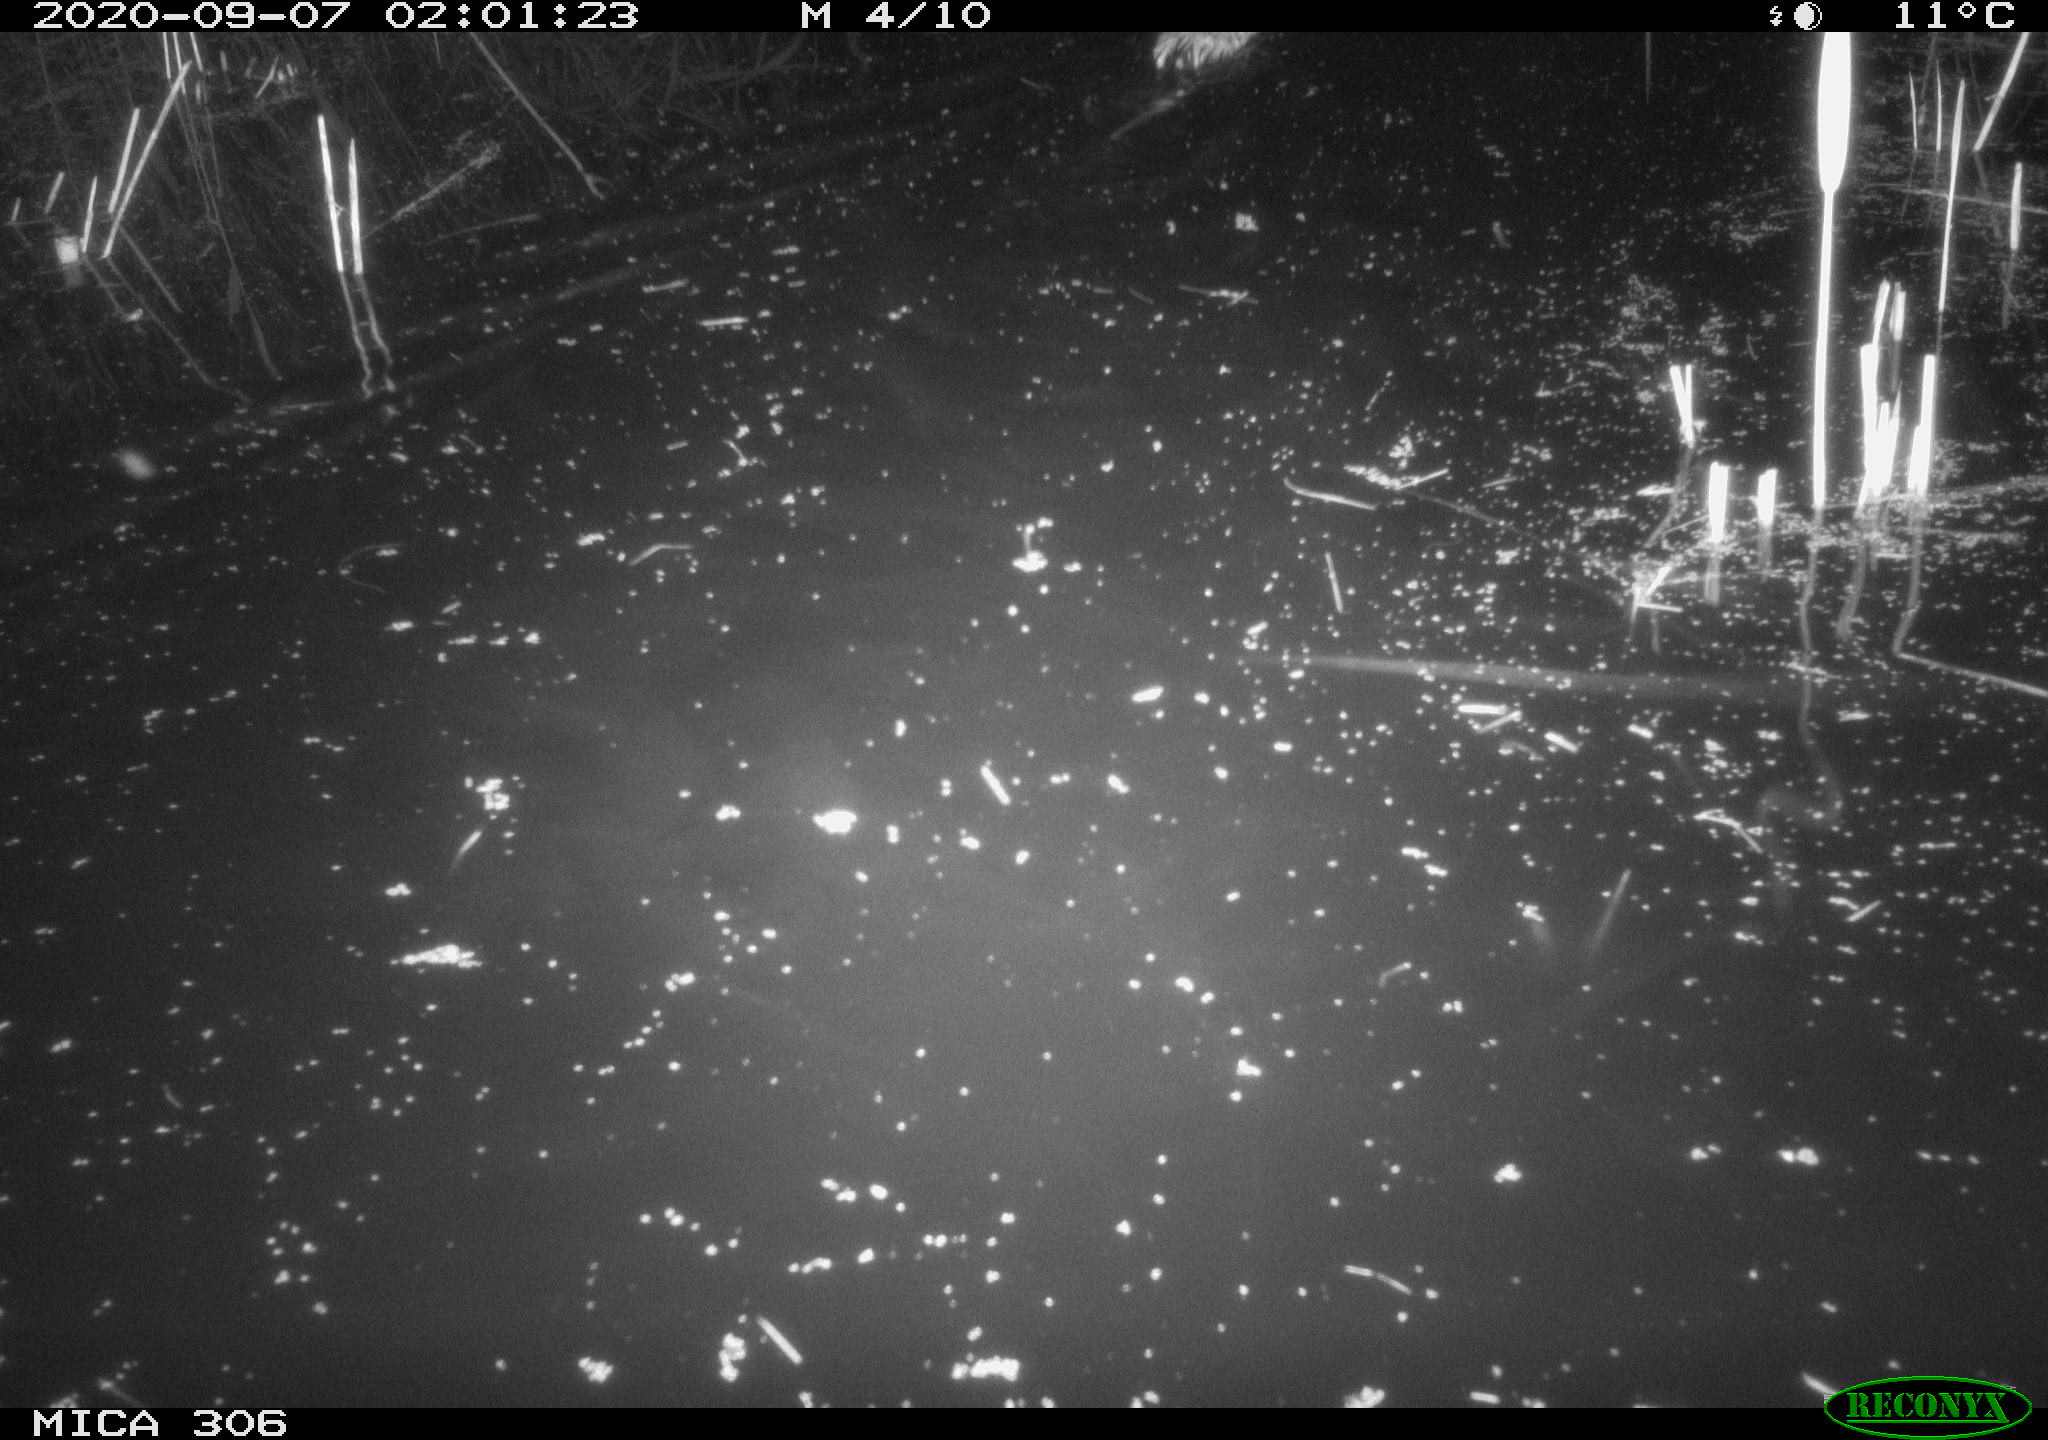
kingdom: Animalia
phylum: Chordata
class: Mammalia
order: Rodentia
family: Cricetidae
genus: Ondatra
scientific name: Ondatra zibethicus
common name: Muskrat
